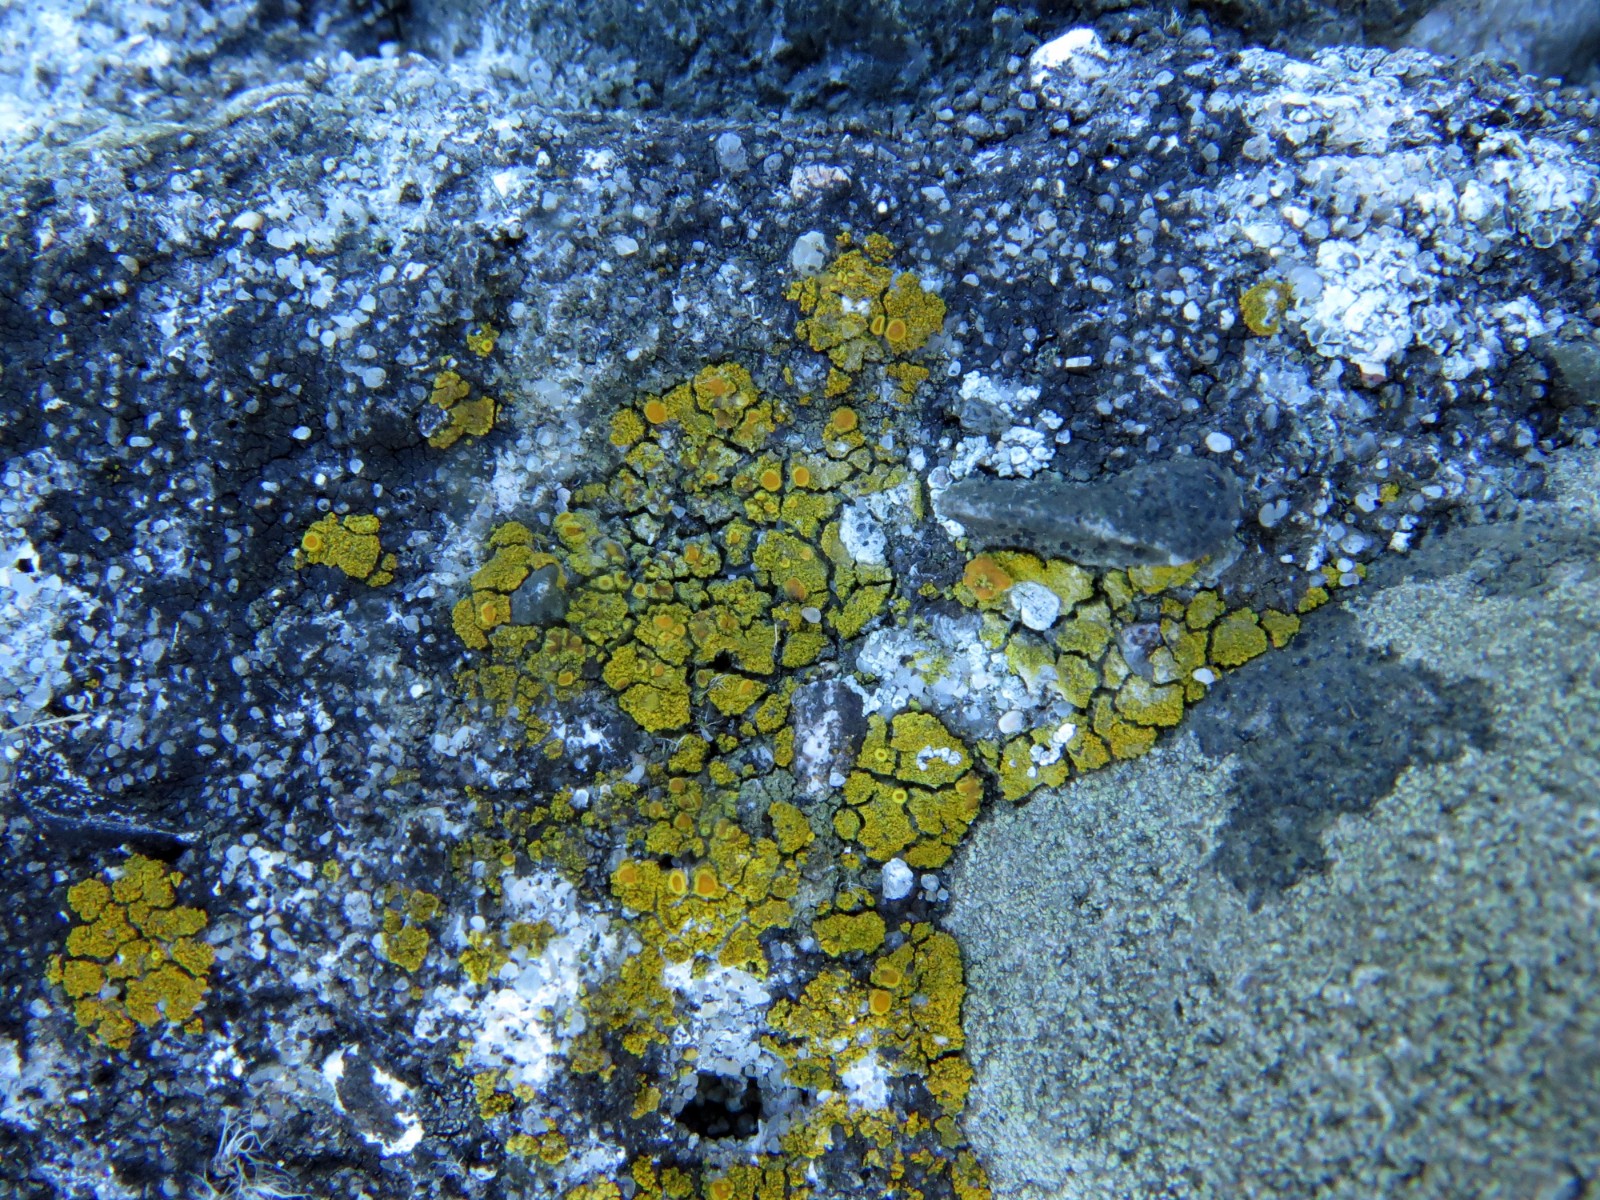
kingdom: Fungi
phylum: Ascomycota
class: Candelariomycetes
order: Candelariales
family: Candelariaceae
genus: Candelariella
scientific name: Candelariella vitellina
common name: almindelig æggeblommelav
